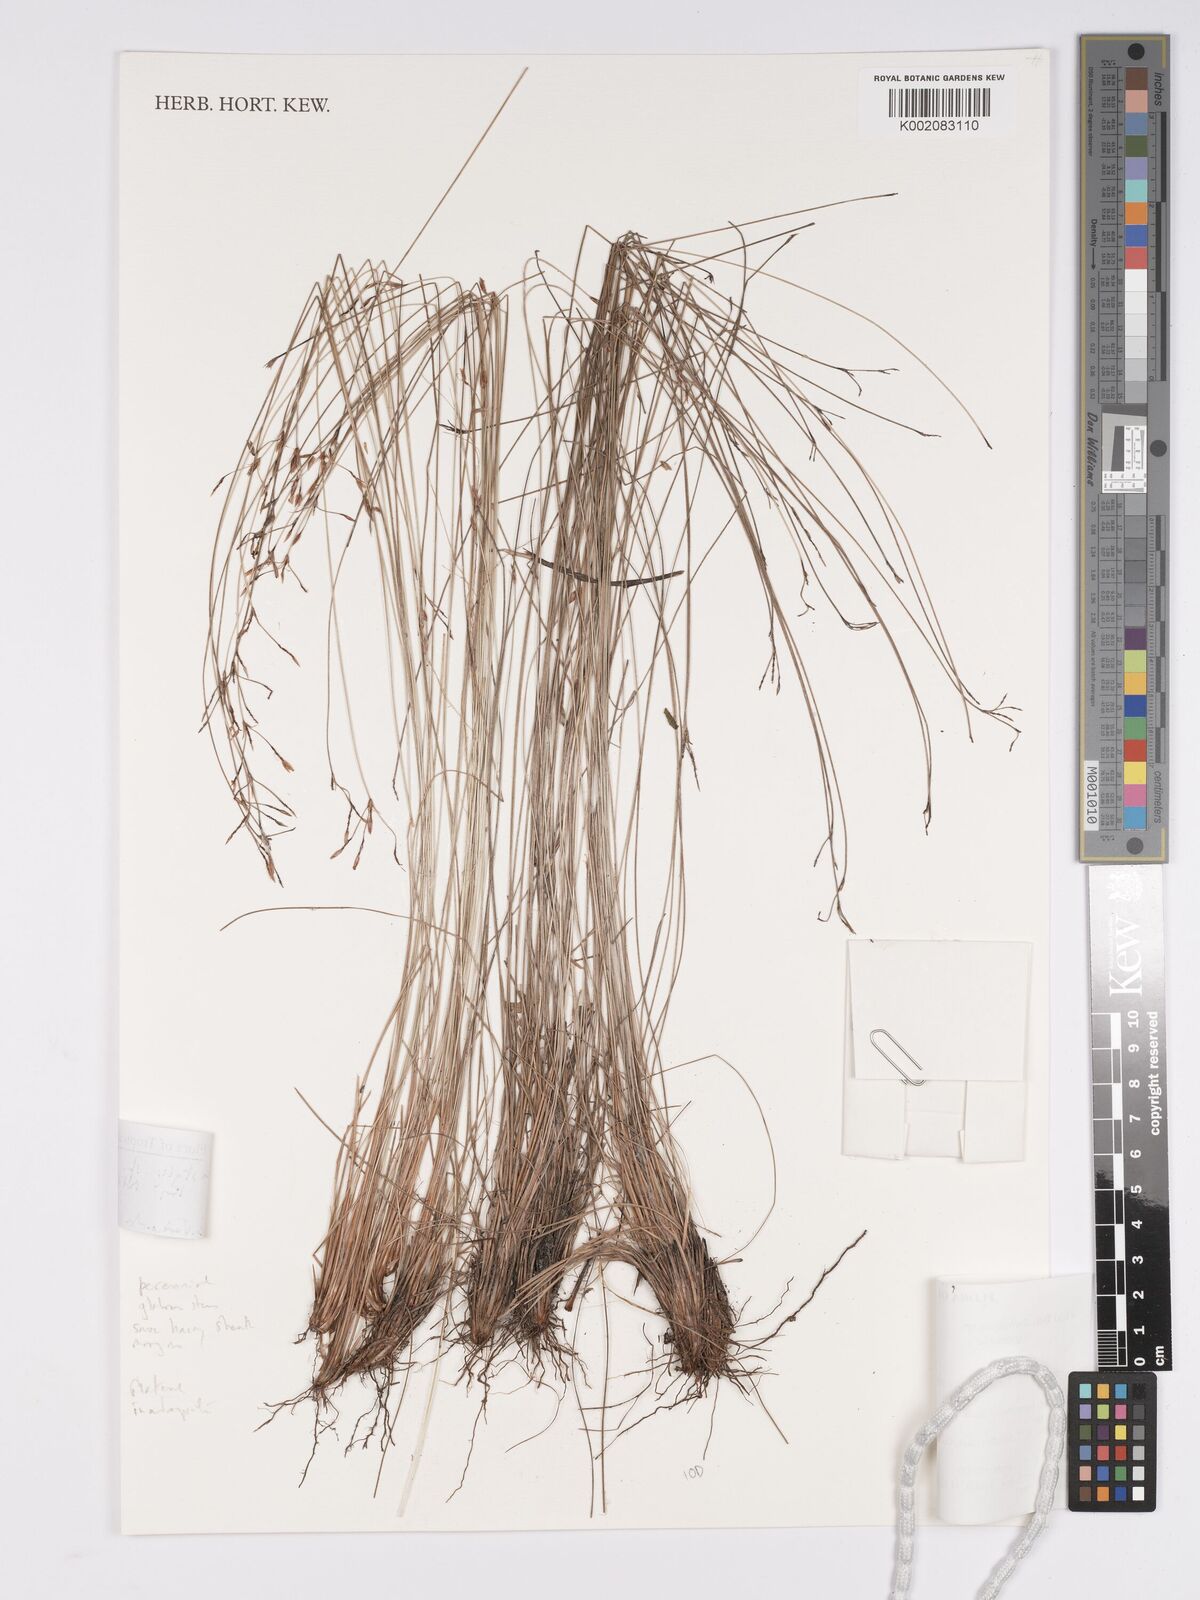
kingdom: Plantae
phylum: Tracheophyta
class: Magnoliopsida
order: Asterales
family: Asteraceae
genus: Bulbostylis
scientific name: Bulbostylis
